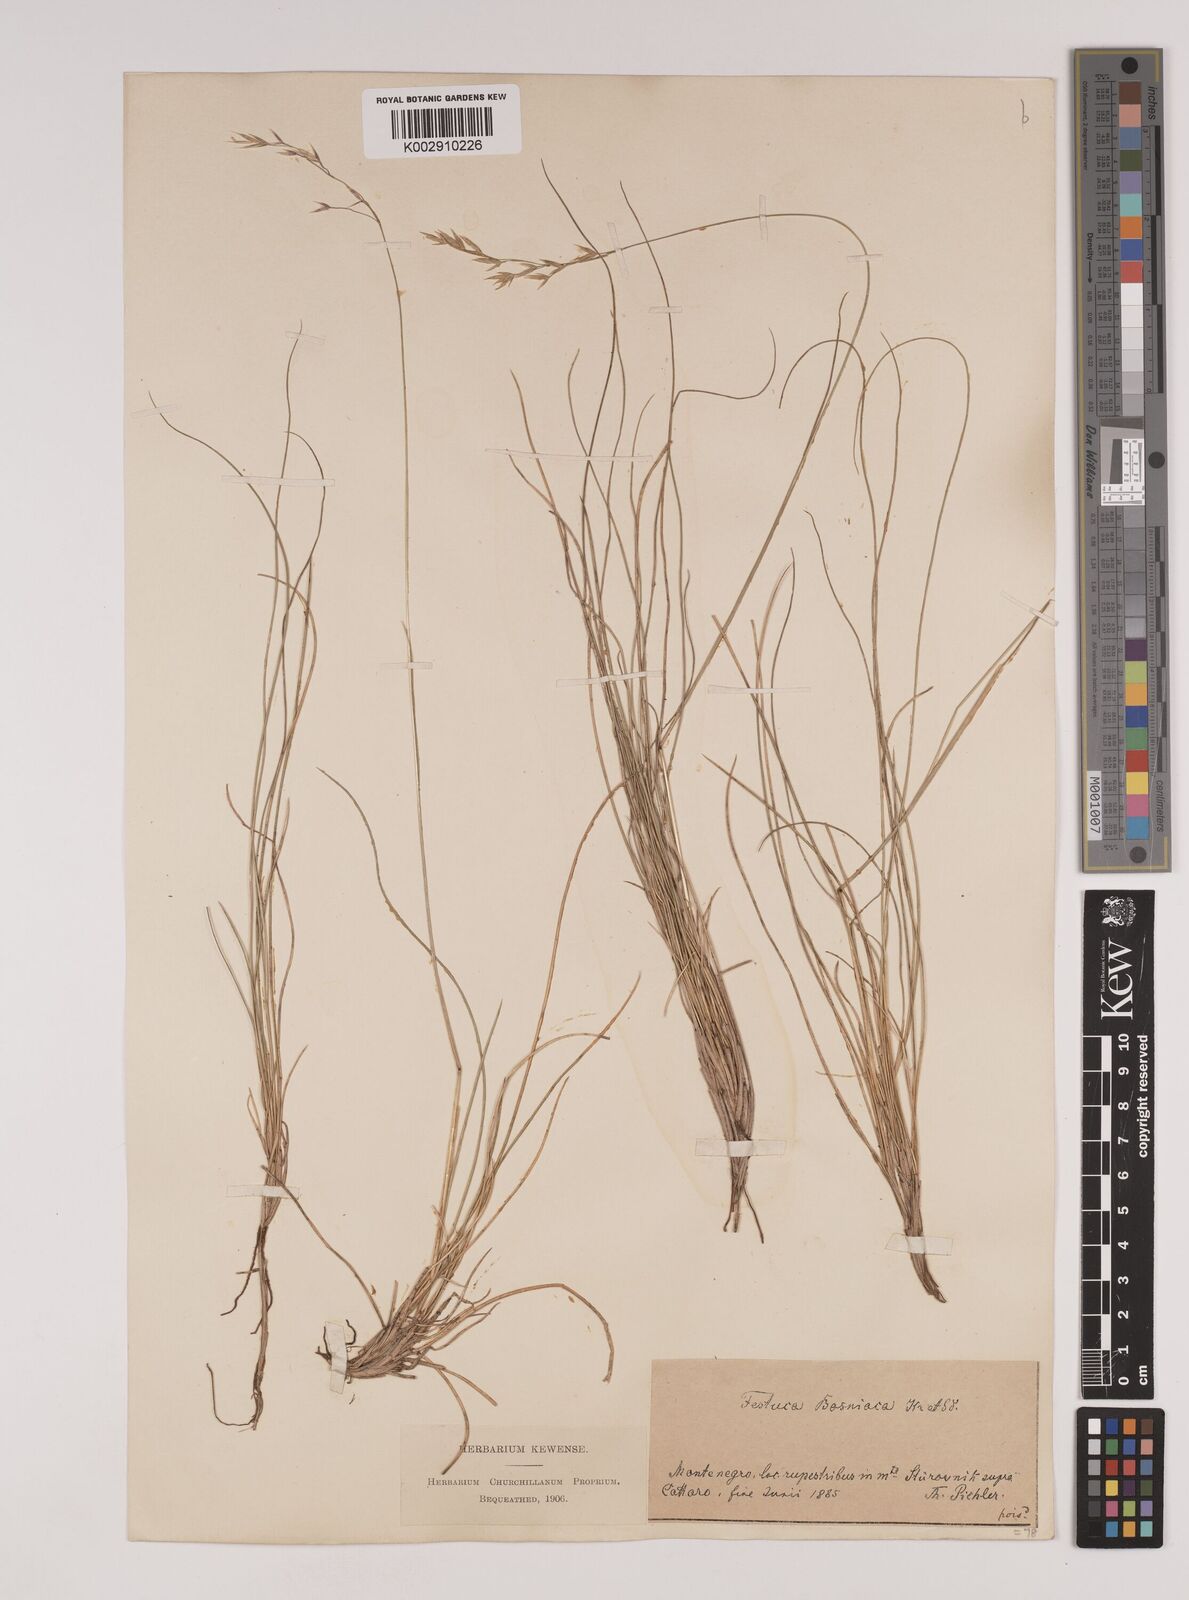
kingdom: Plantae
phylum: Tracheophyta
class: Liliopsida
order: Poales
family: Poaceae
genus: Festuca
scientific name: Festuca bosniaca
